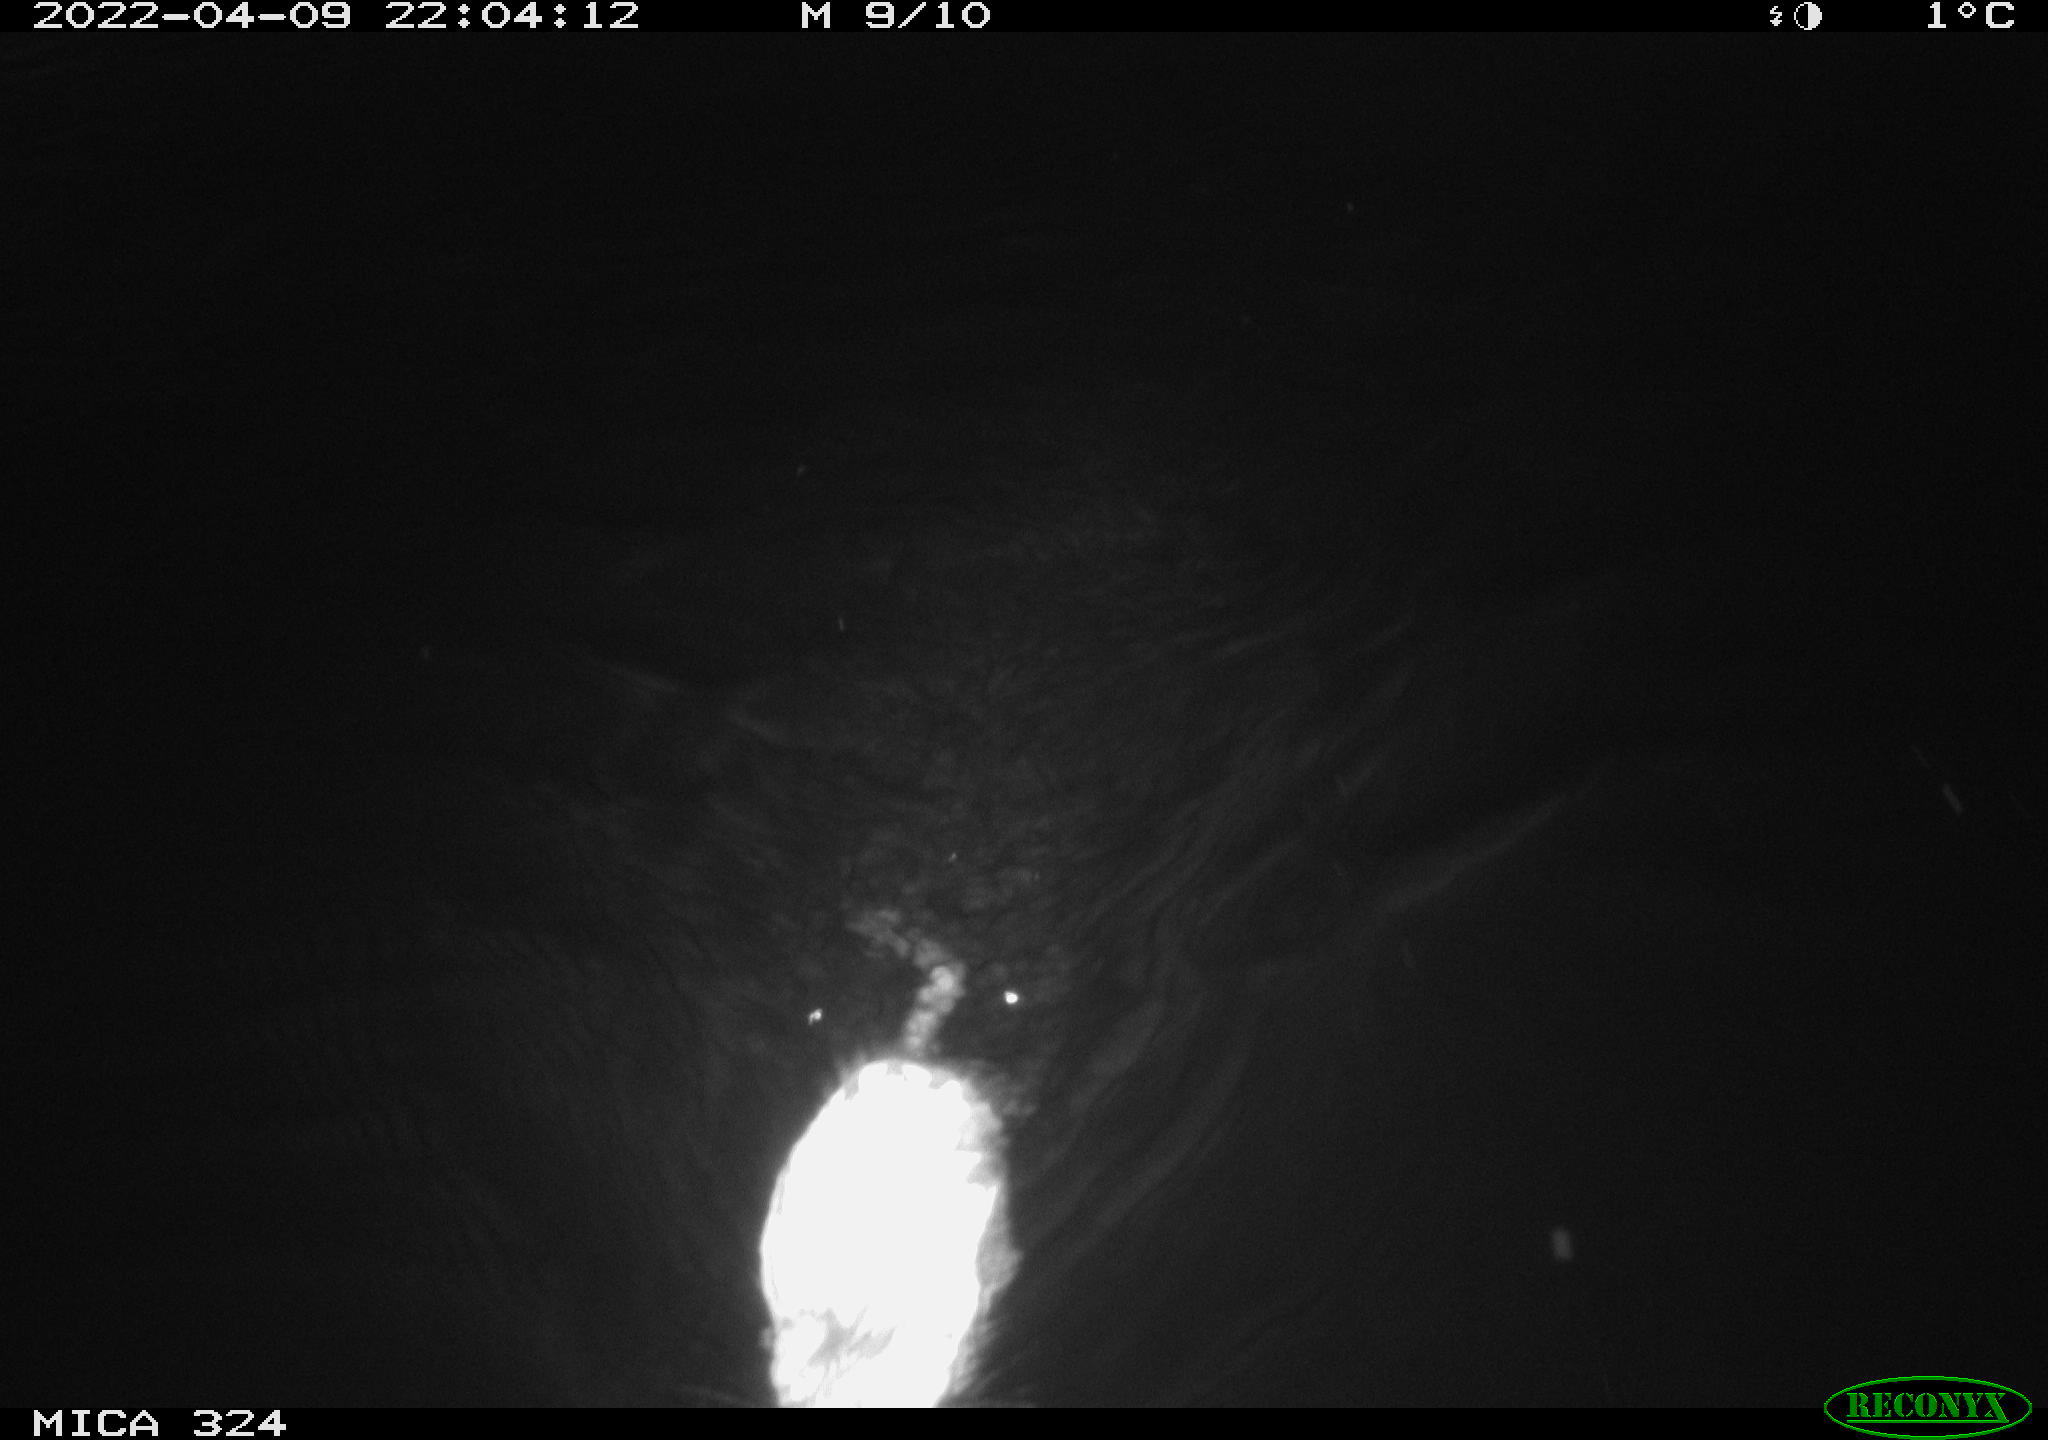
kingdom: Animalia
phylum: Chordata
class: Mammalia
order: Rodentia
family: Cricetidae
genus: Ondatra
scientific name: Ondatra zibethicus
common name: Muskrat
